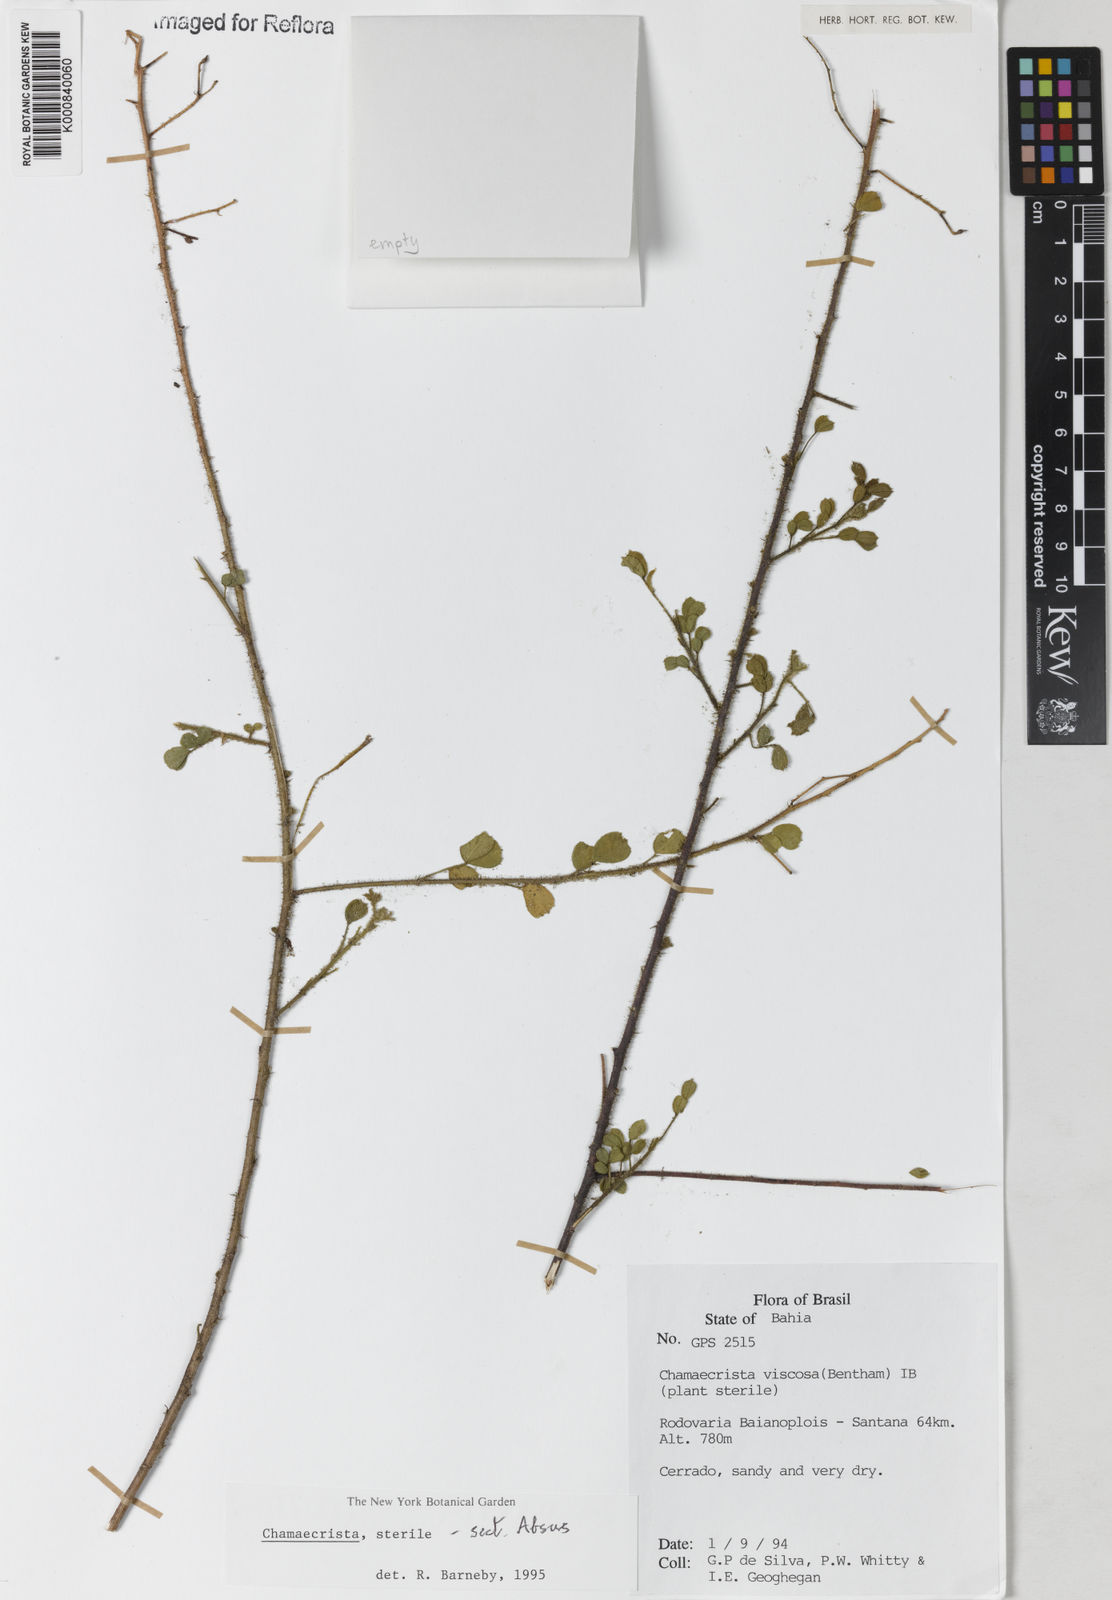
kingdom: Plantae
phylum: Tracheophyta
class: Magnoliopsida
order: Fabales
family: Fabaceae
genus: Chamaecrista
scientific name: Chamaecrista
